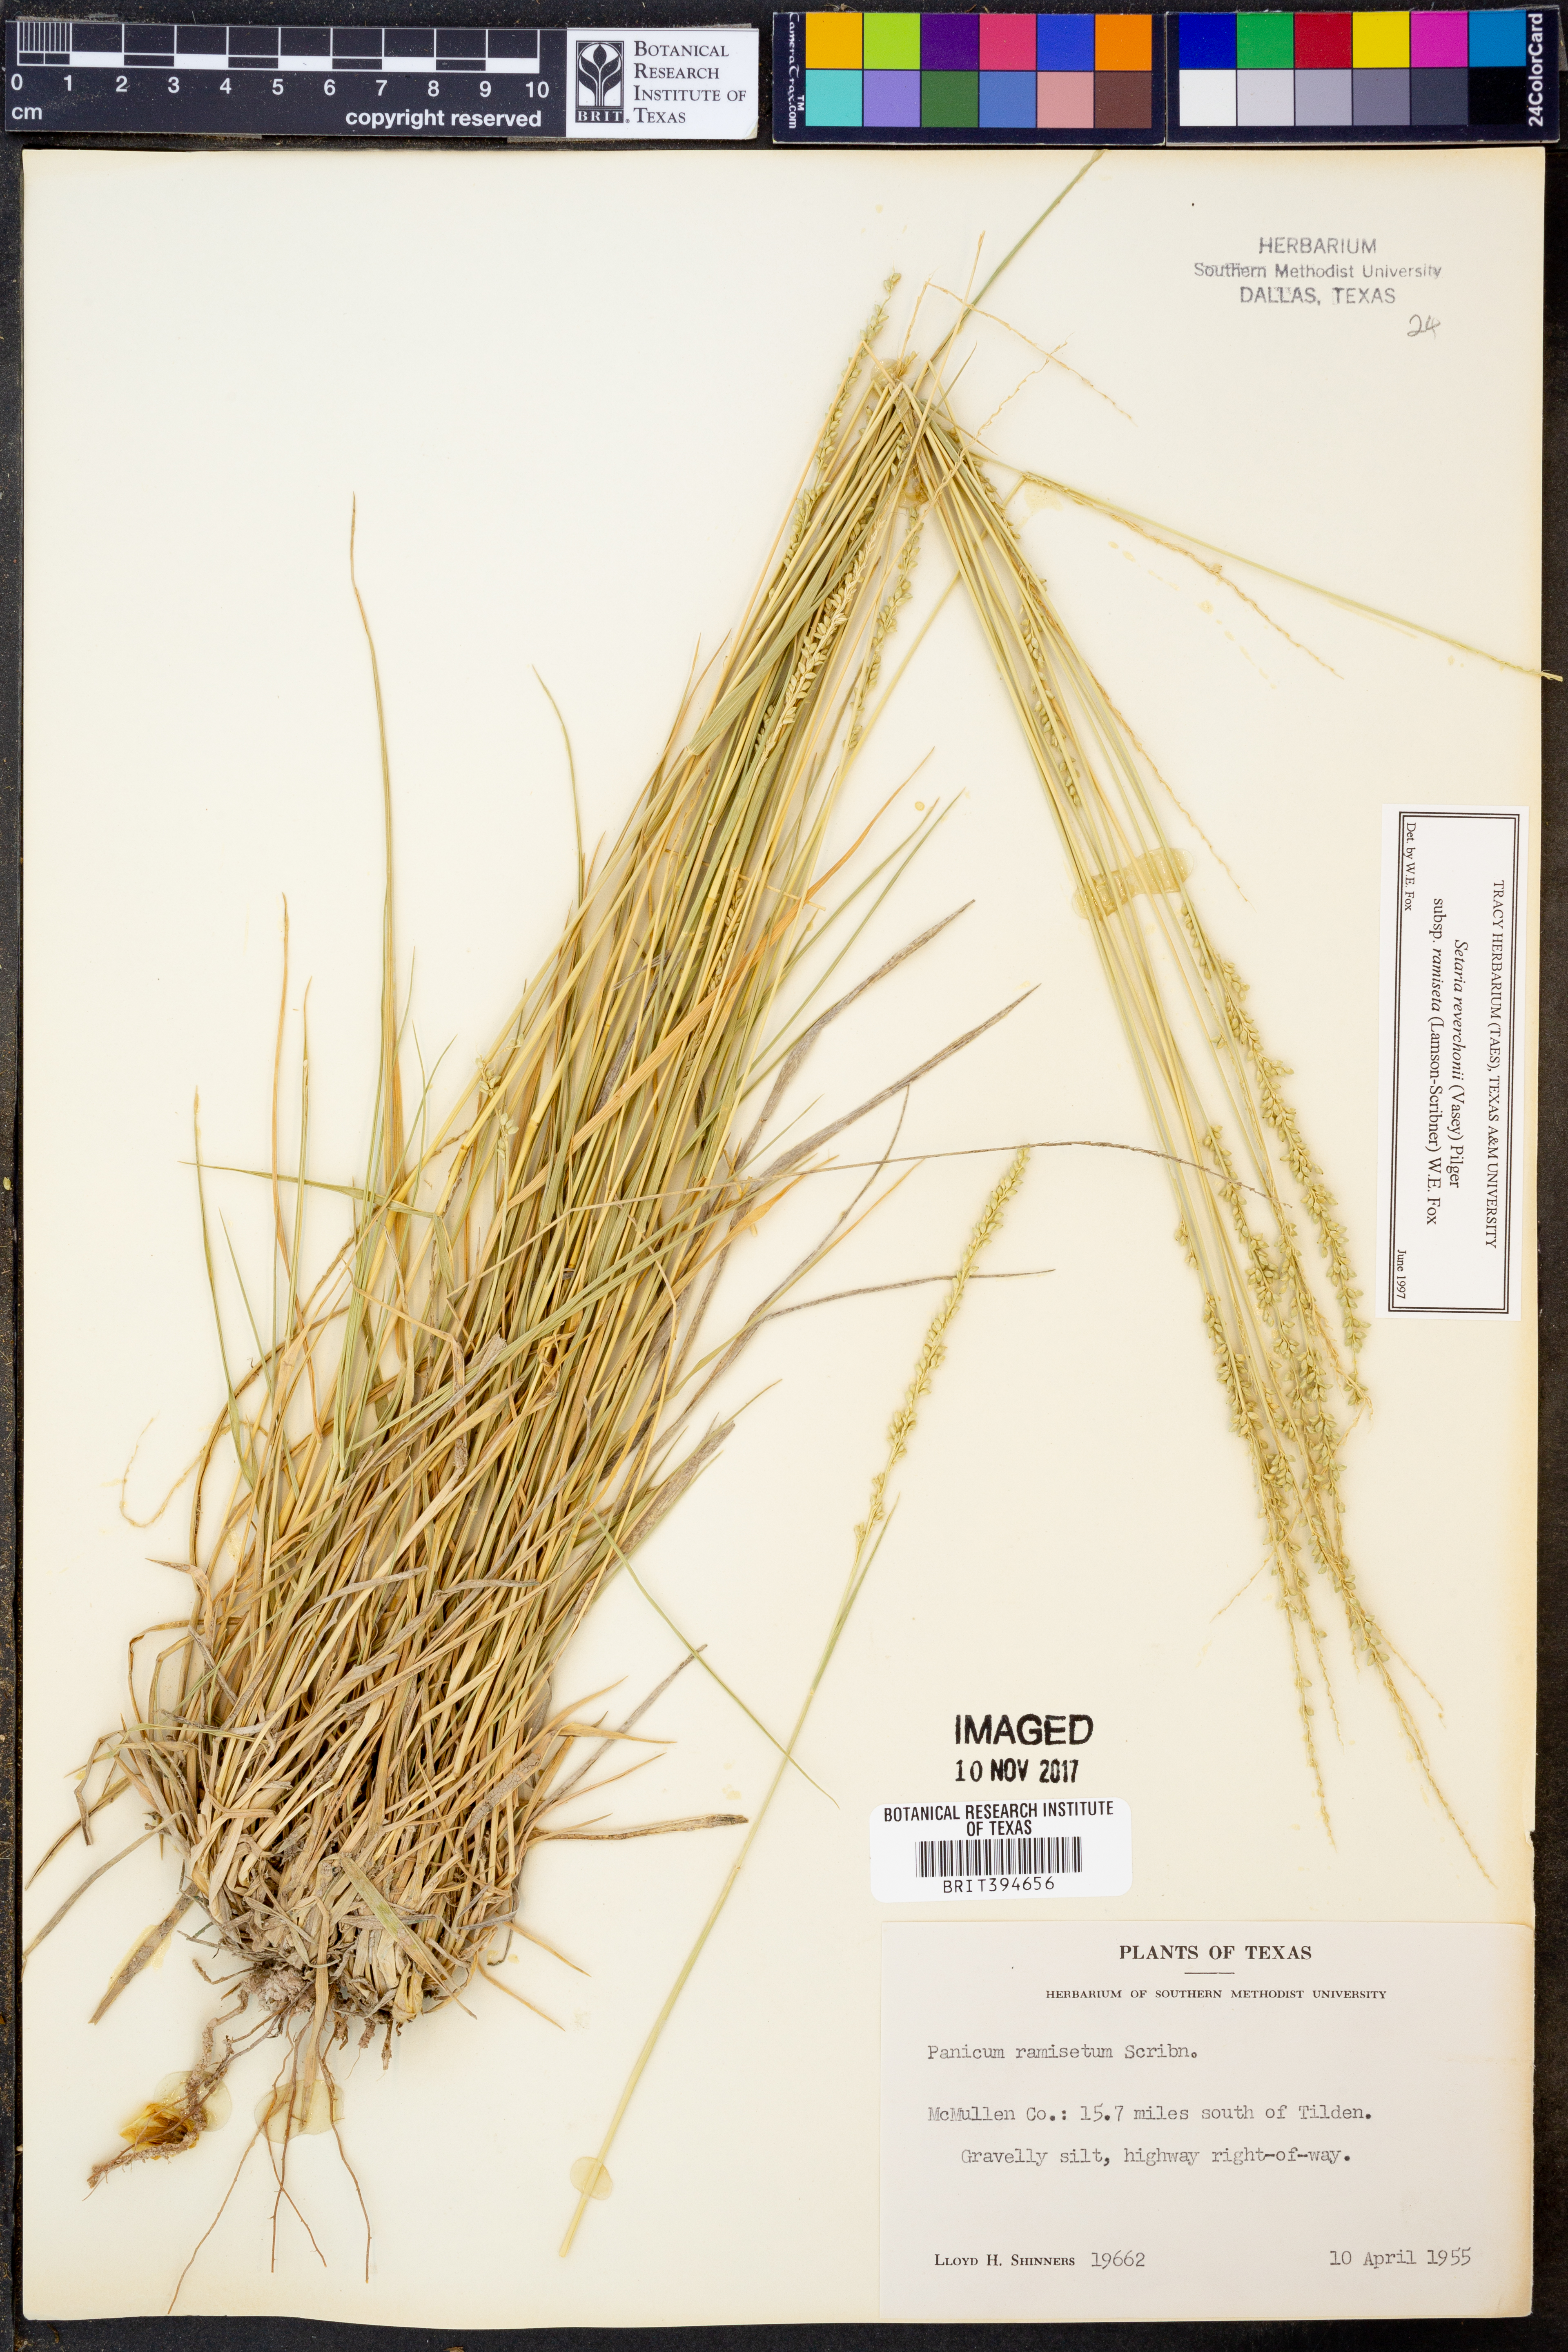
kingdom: Plantae
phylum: Tracheophyta
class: Liliopsida
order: Poales
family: Poaceae
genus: Setaria
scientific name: Setaria reverchonii
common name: Reverchon's bristle grass
